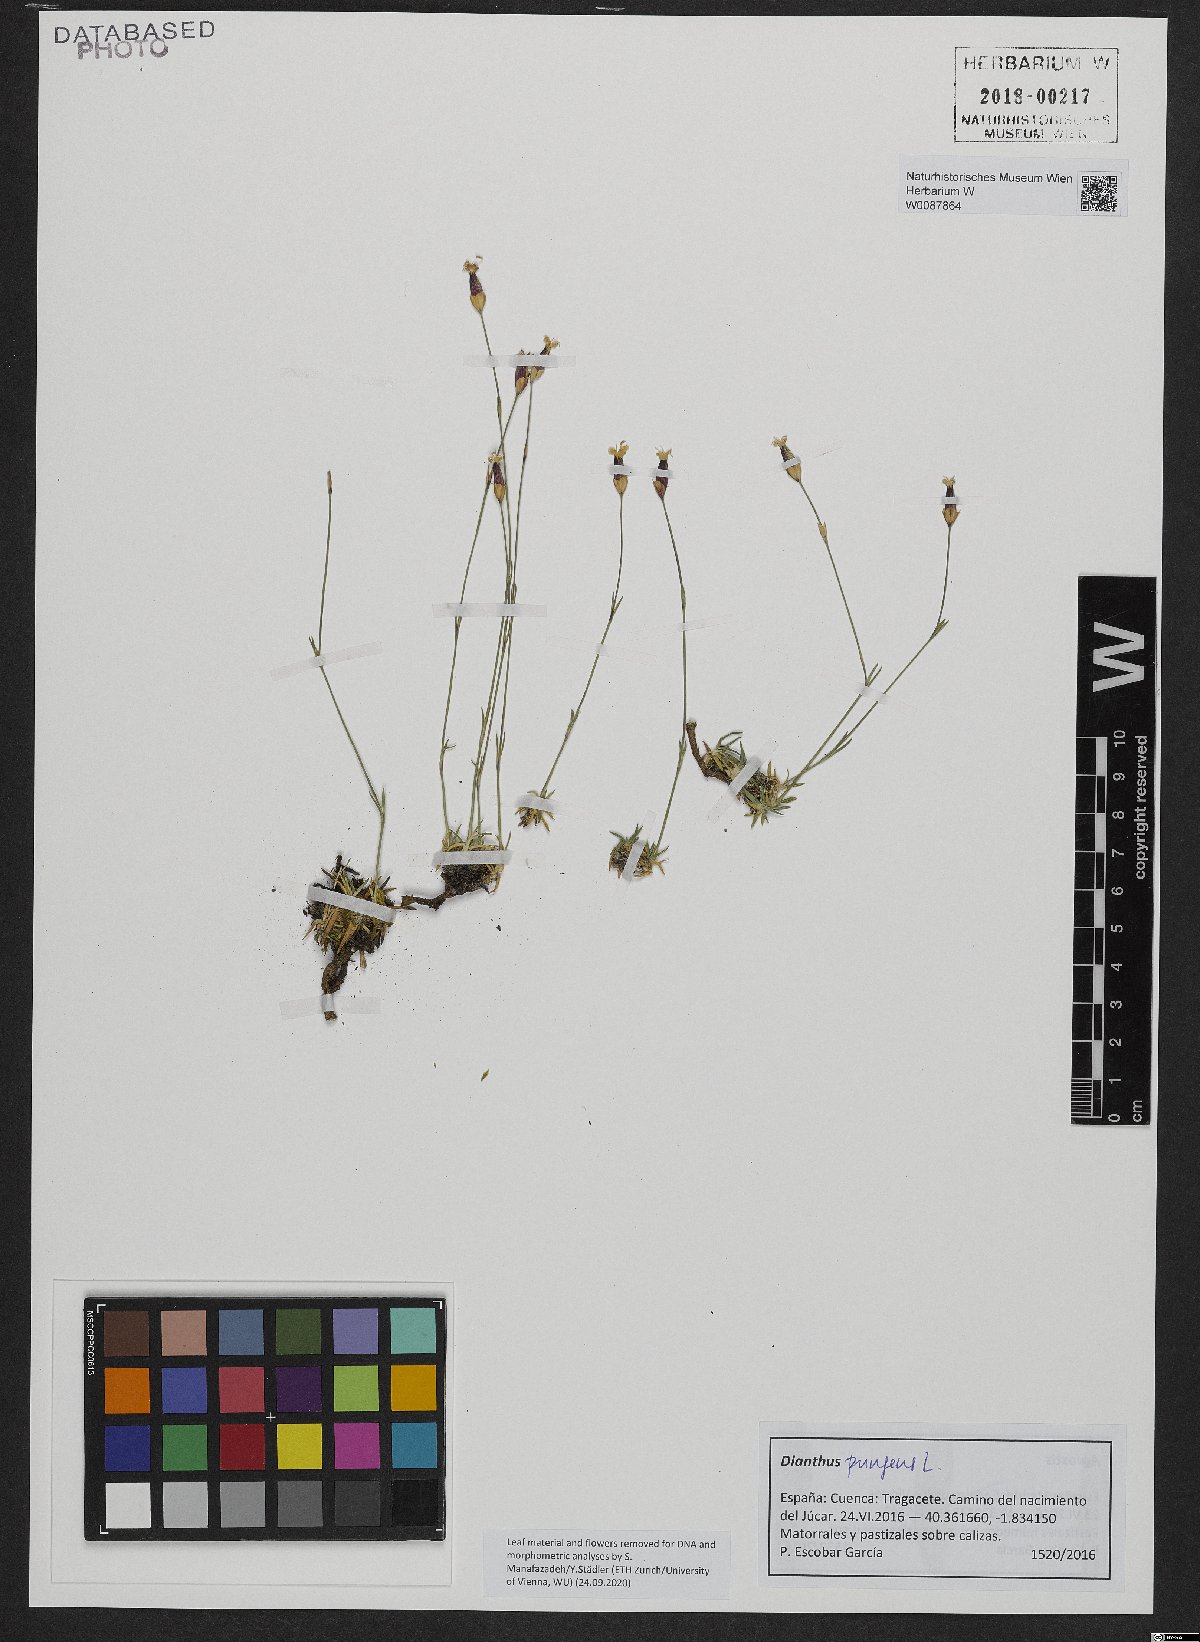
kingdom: Plantae
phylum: Tracheophyta
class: Magnoliopsida
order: Caryophyllales
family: Caryophyllaceae
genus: Dianthus
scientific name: Dianthus pungens
